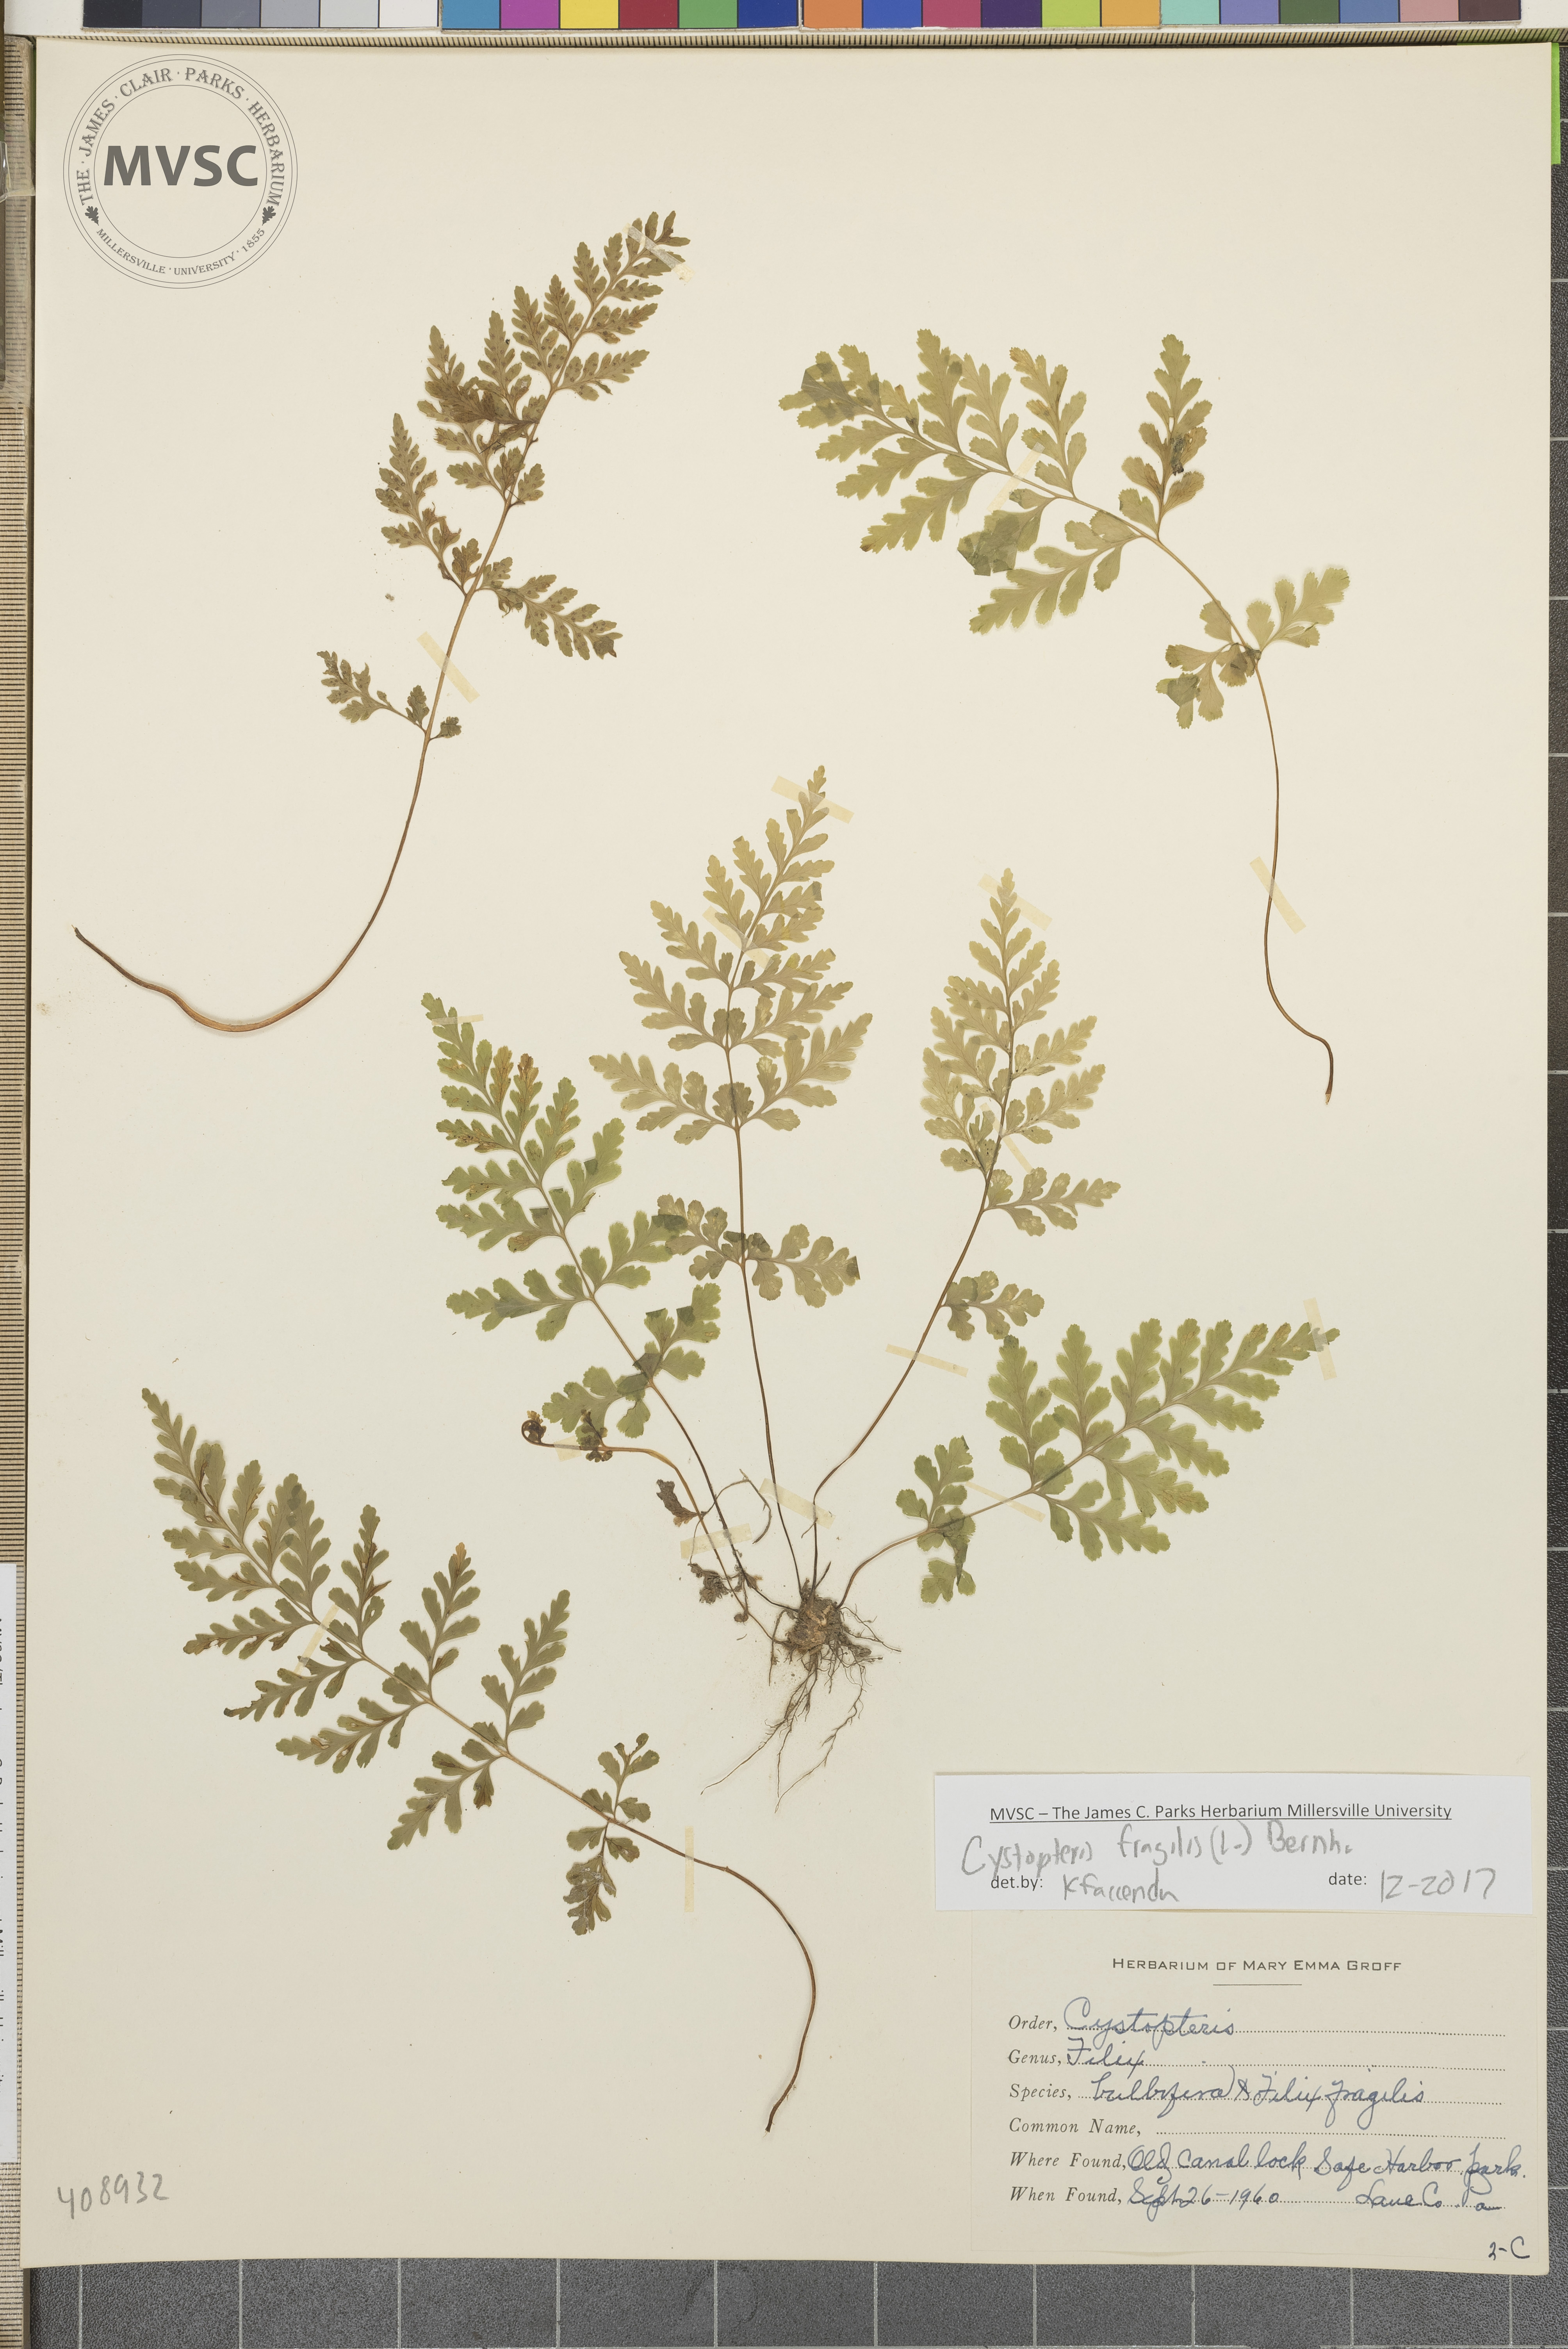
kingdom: Plantae
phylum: Tracheophyta
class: Polypodiopsida
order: Polypodiales
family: Cystopteridaceae
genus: Cystopteris
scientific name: Cystopteris fragilis
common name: Brittle bladder fern
